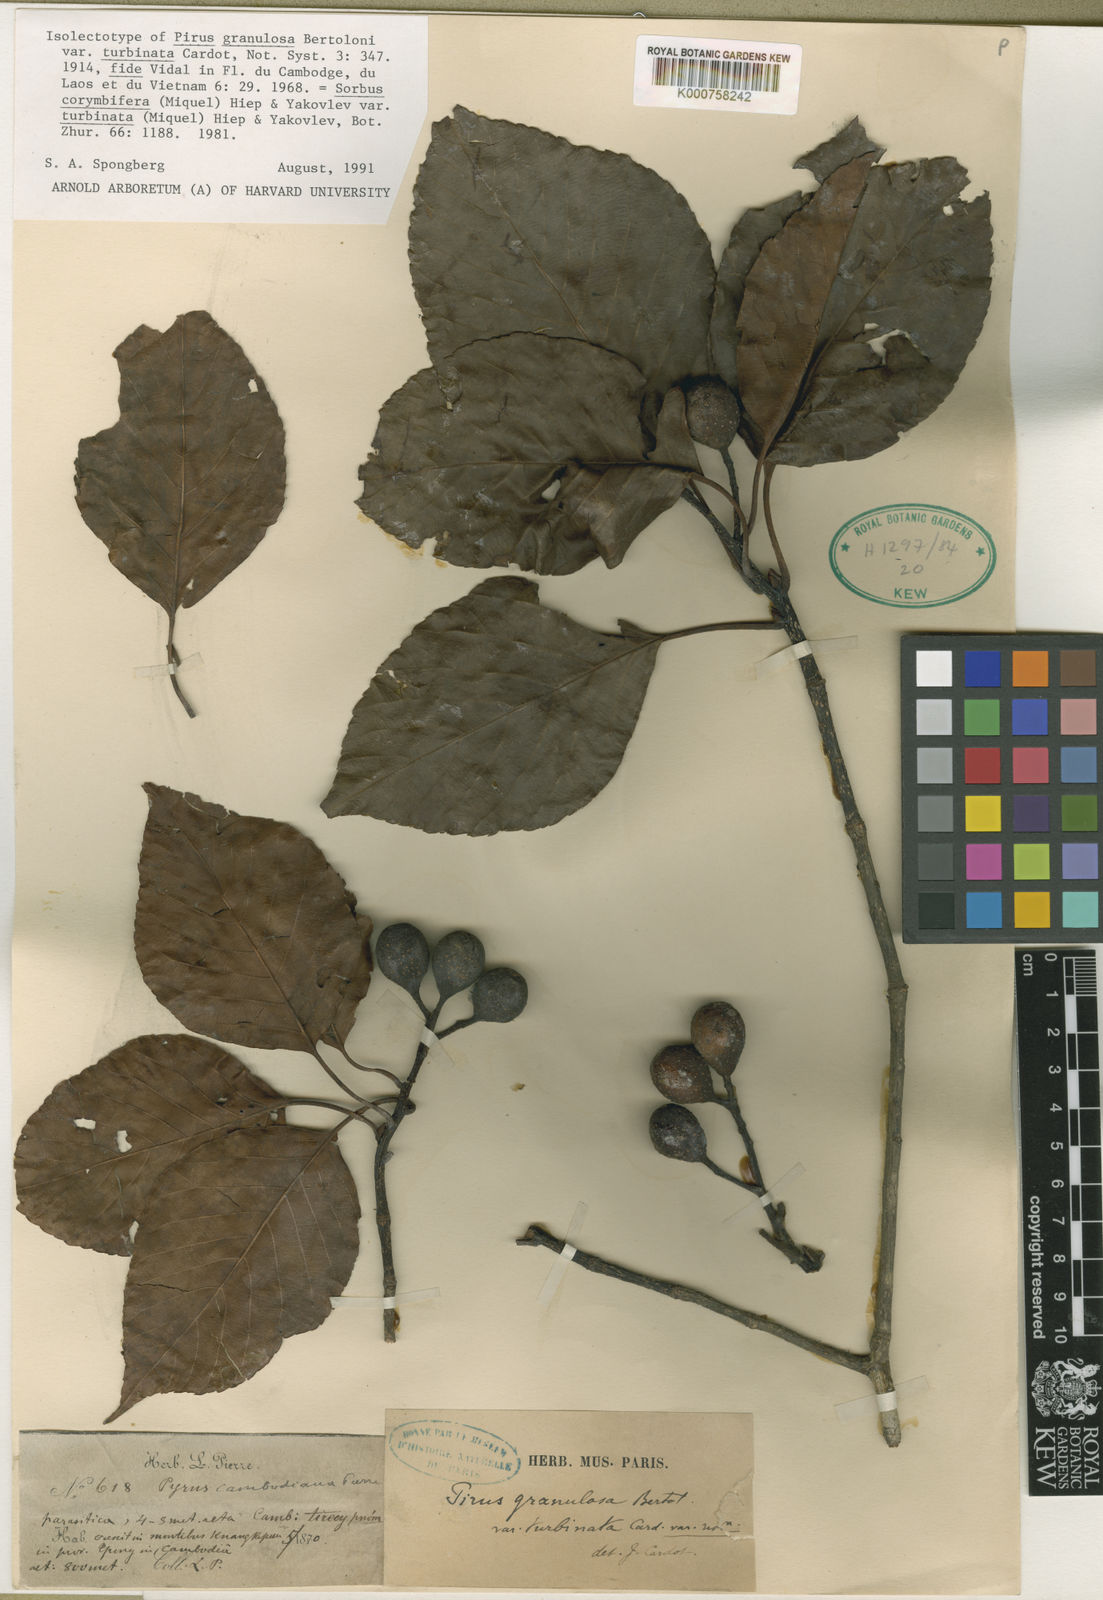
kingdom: Plantae
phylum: Tracheophyta
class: Magnoliopsida
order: Rosales
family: Rosaceae
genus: Sorbus
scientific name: Sorbus
